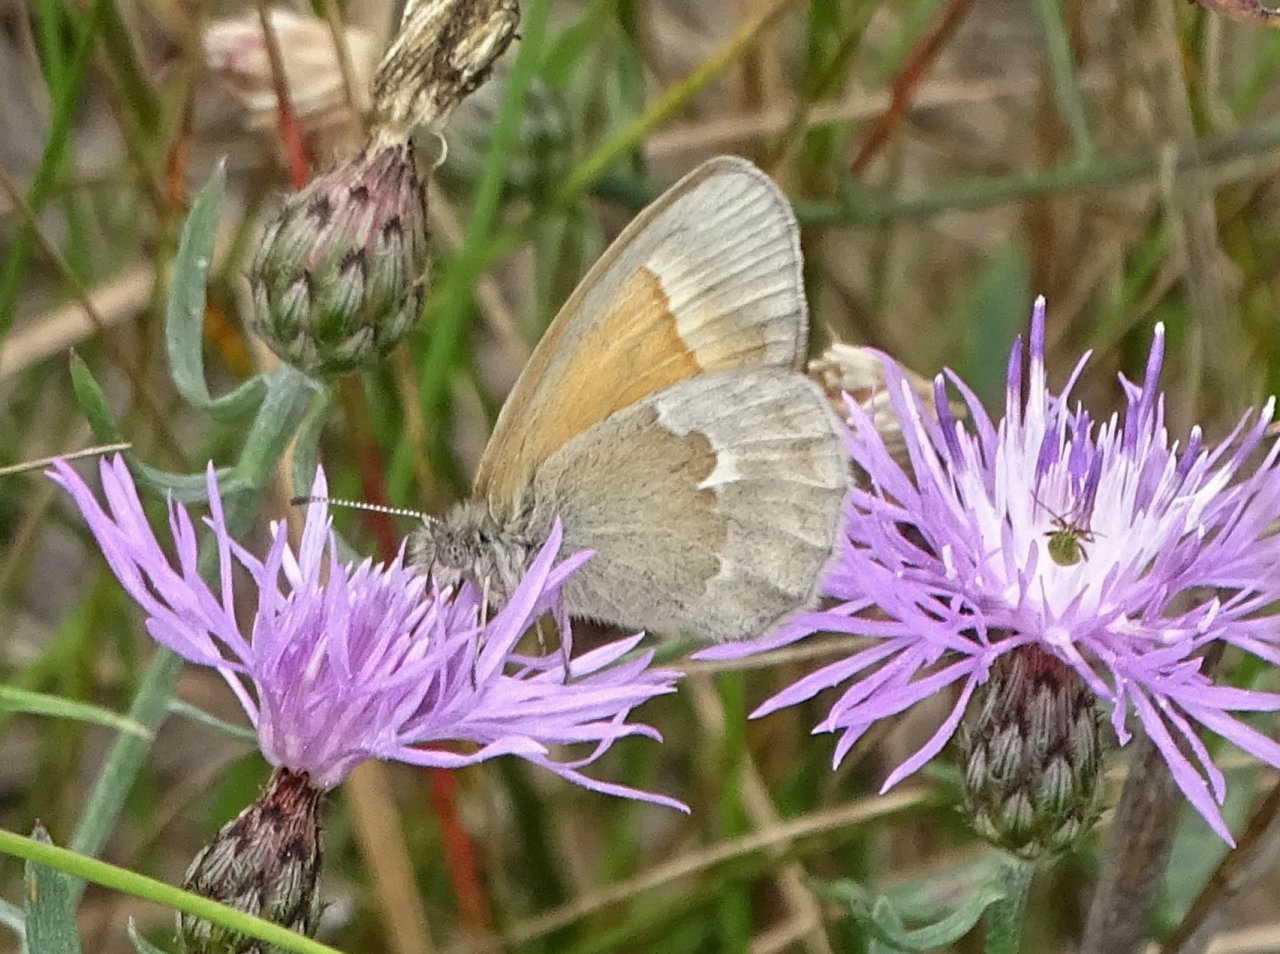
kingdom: Animalia
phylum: Arthropoda
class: Insecta
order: Lepidoptera
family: Nymphalidae
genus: Coenonympha
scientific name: Coenonympha tullia
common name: Large Heath
